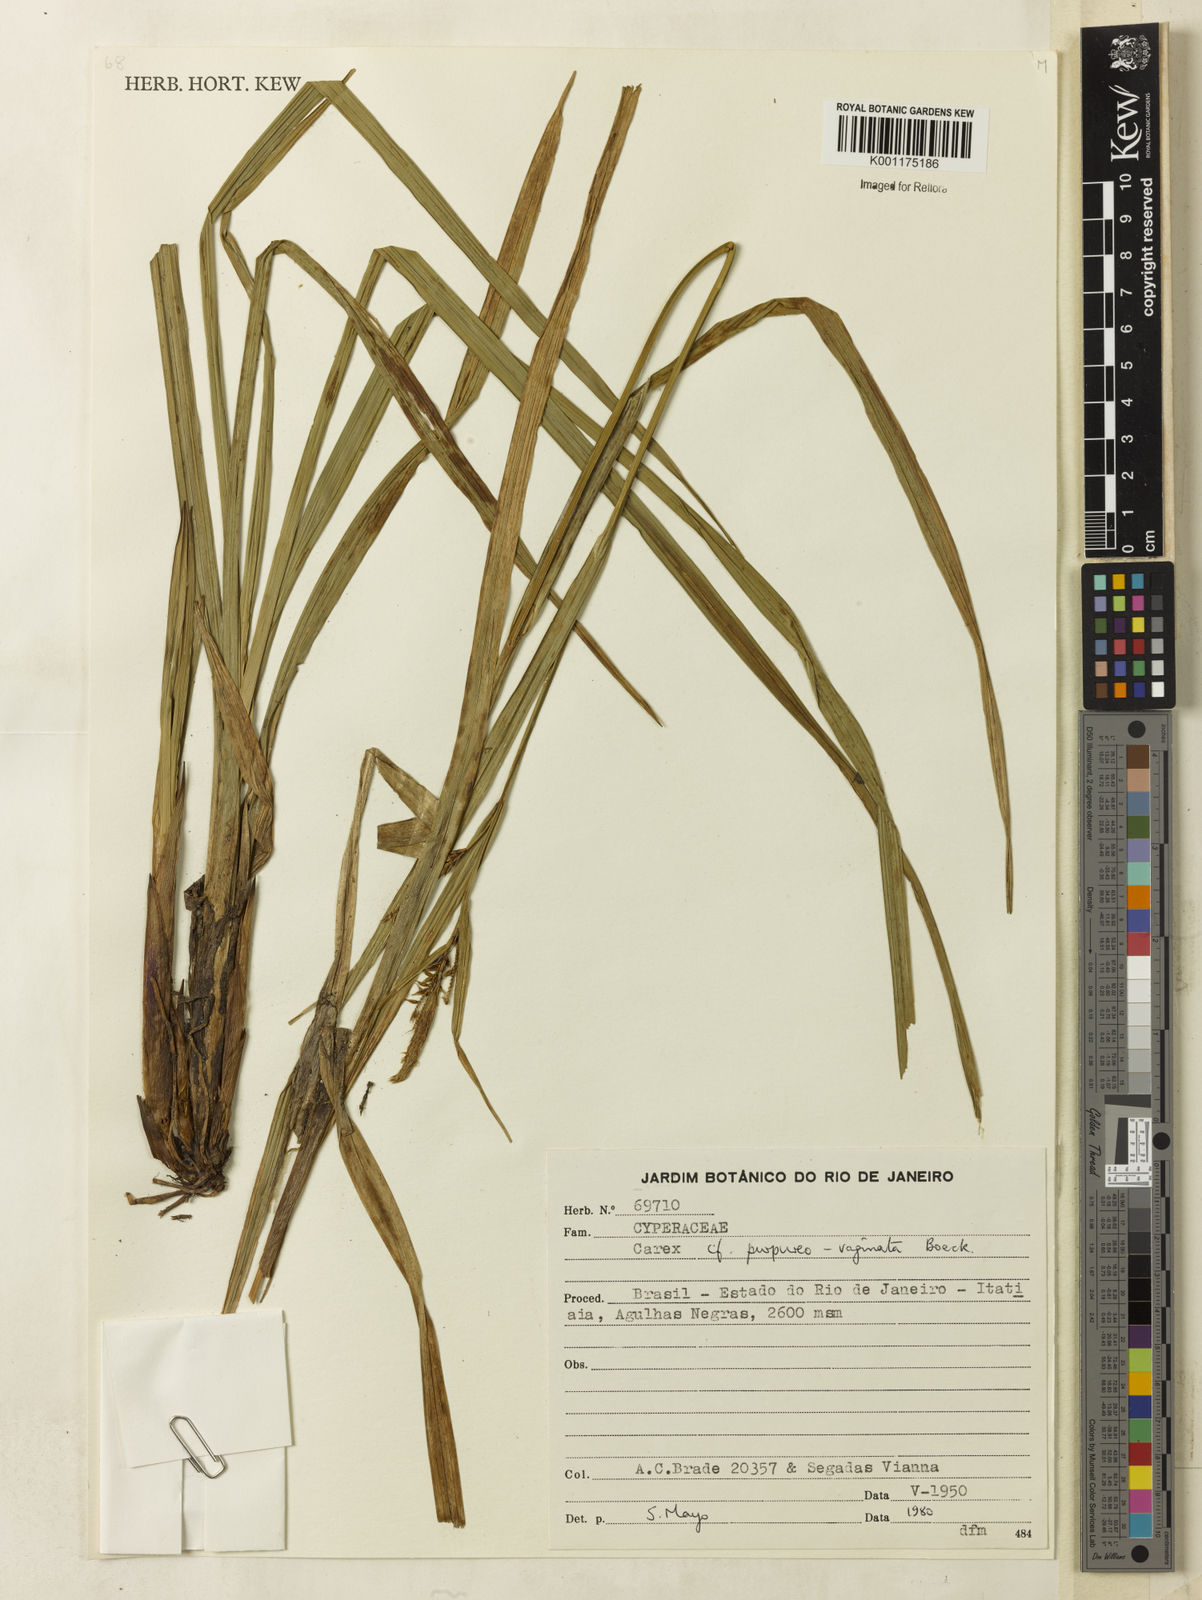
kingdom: Plantae
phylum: Tracheophyta
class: Liliopsida
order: Poales
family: Cyperaceae
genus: Carex
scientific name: Carex purpureovaginata
